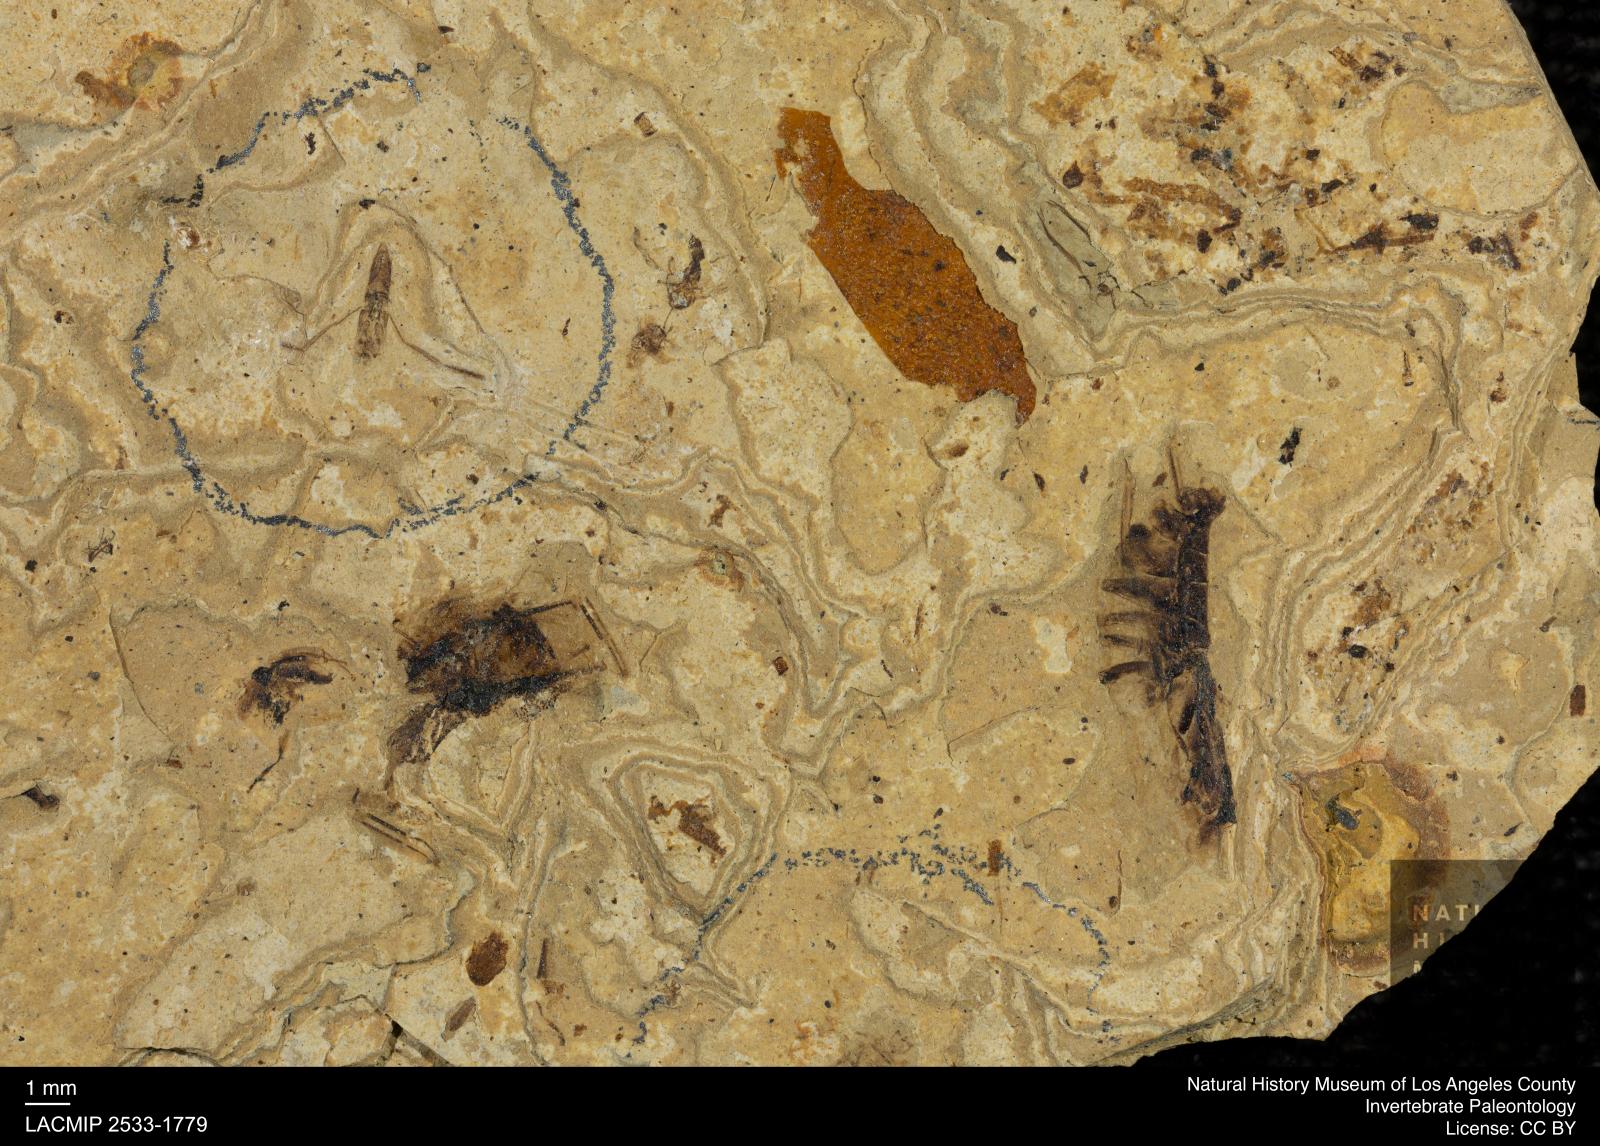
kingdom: Animalia
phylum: Arthropoda
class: Insecta
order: Hemiptera
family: Notonectidae
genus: Notonecta
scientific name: Notonecta
